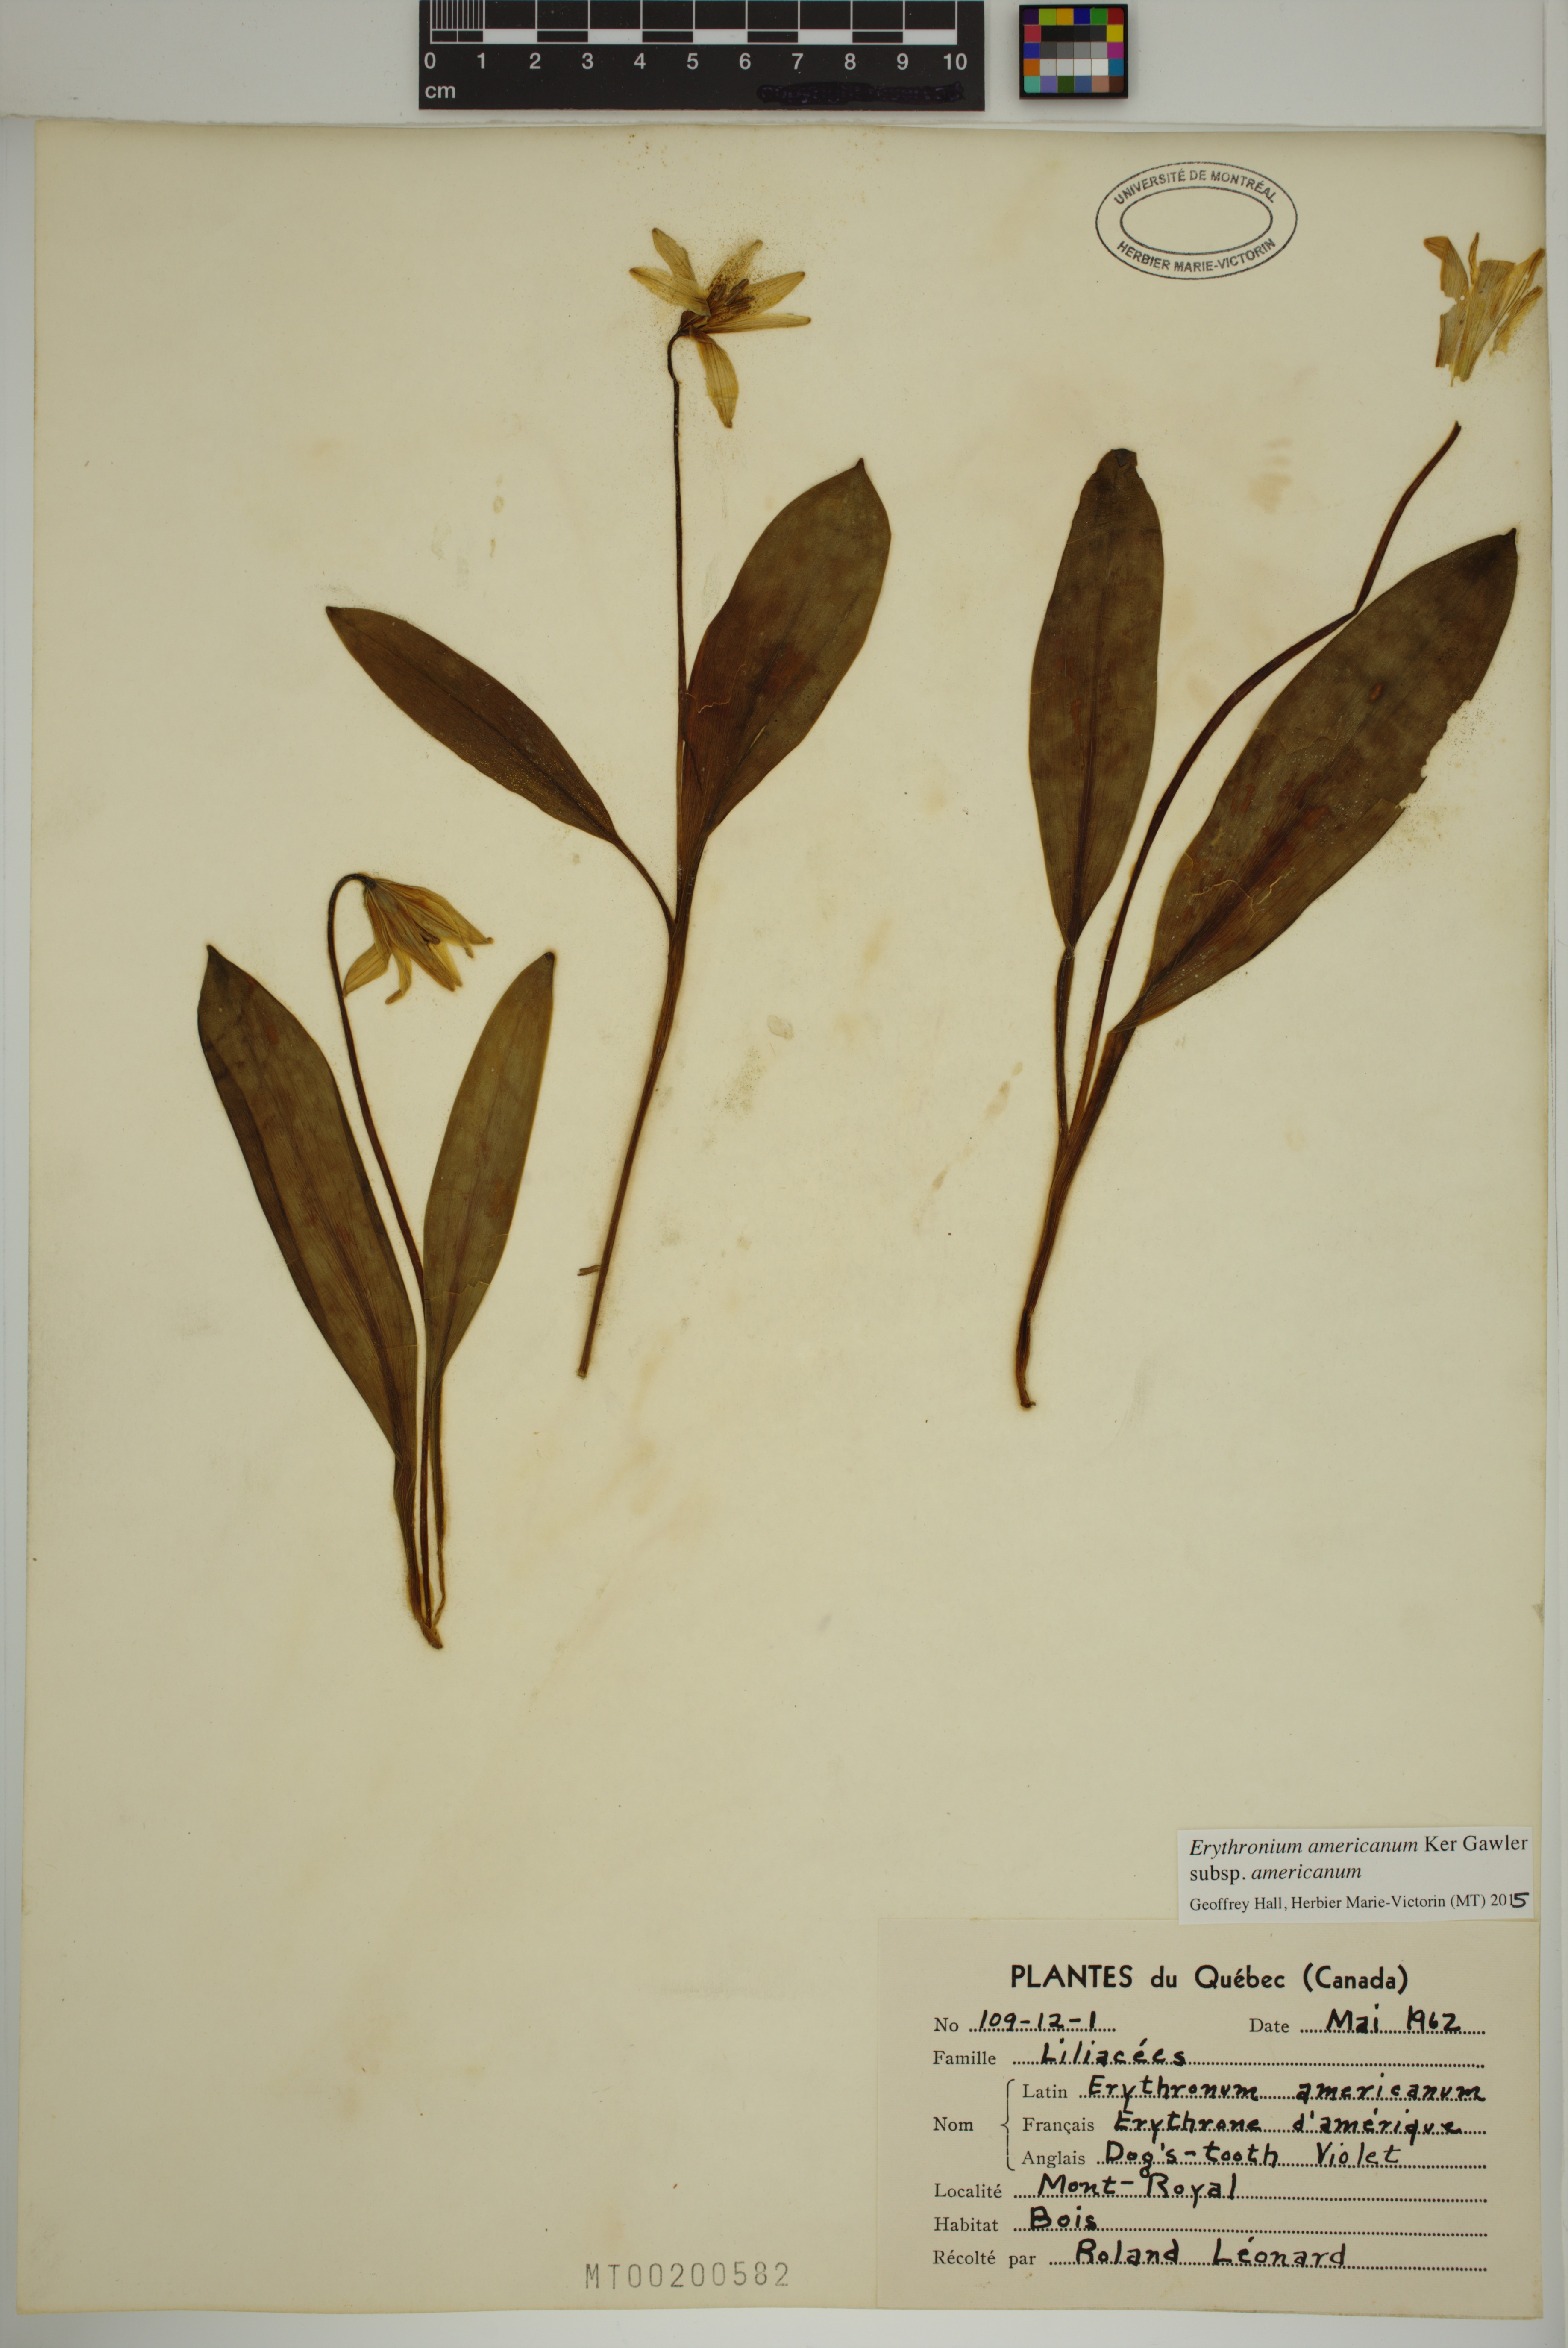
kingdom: Plantae
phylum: Tracheophyta
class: Liliopsida
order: Liliales
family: Liliaceae
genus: Erythronium
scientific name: Erythronium americanum
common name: Yellow adder's-tongue
